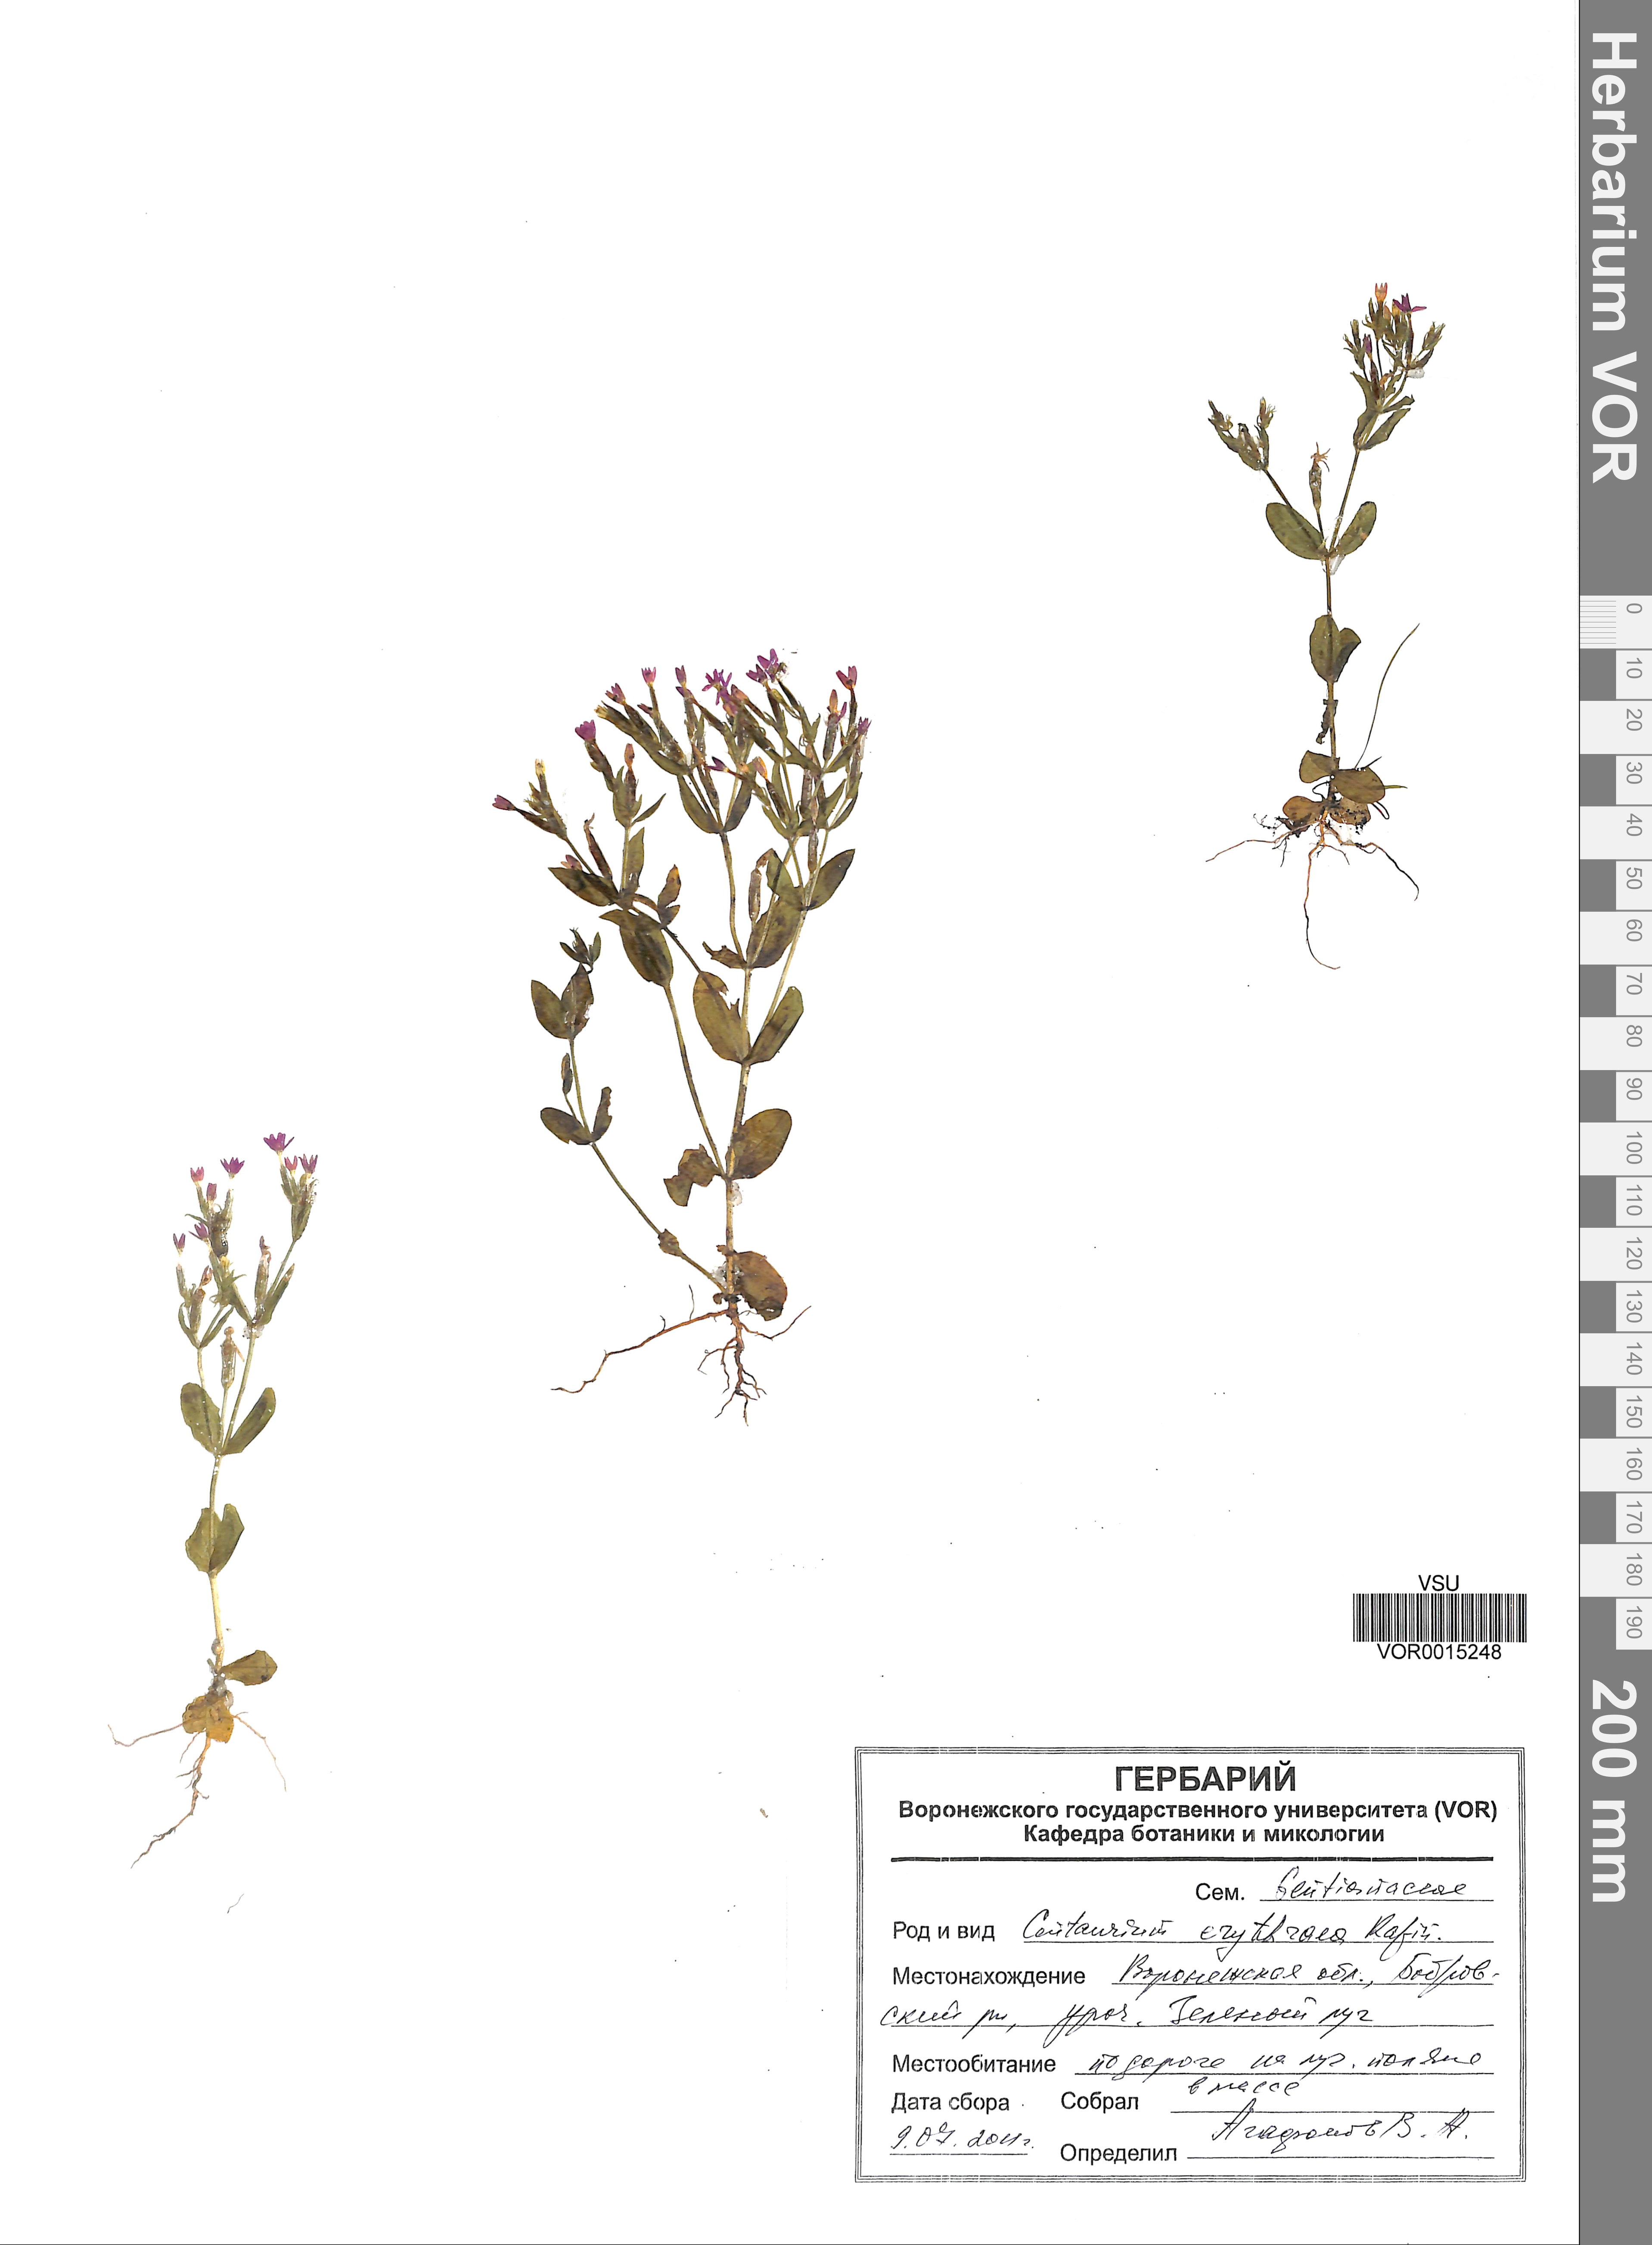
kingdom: Plantae
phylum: Tracheophyta
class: Magnoliopsida
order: Gentianales
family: Gentianaceae
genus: Centaurium
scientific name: Centaurium erythraea
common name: Common centaury
